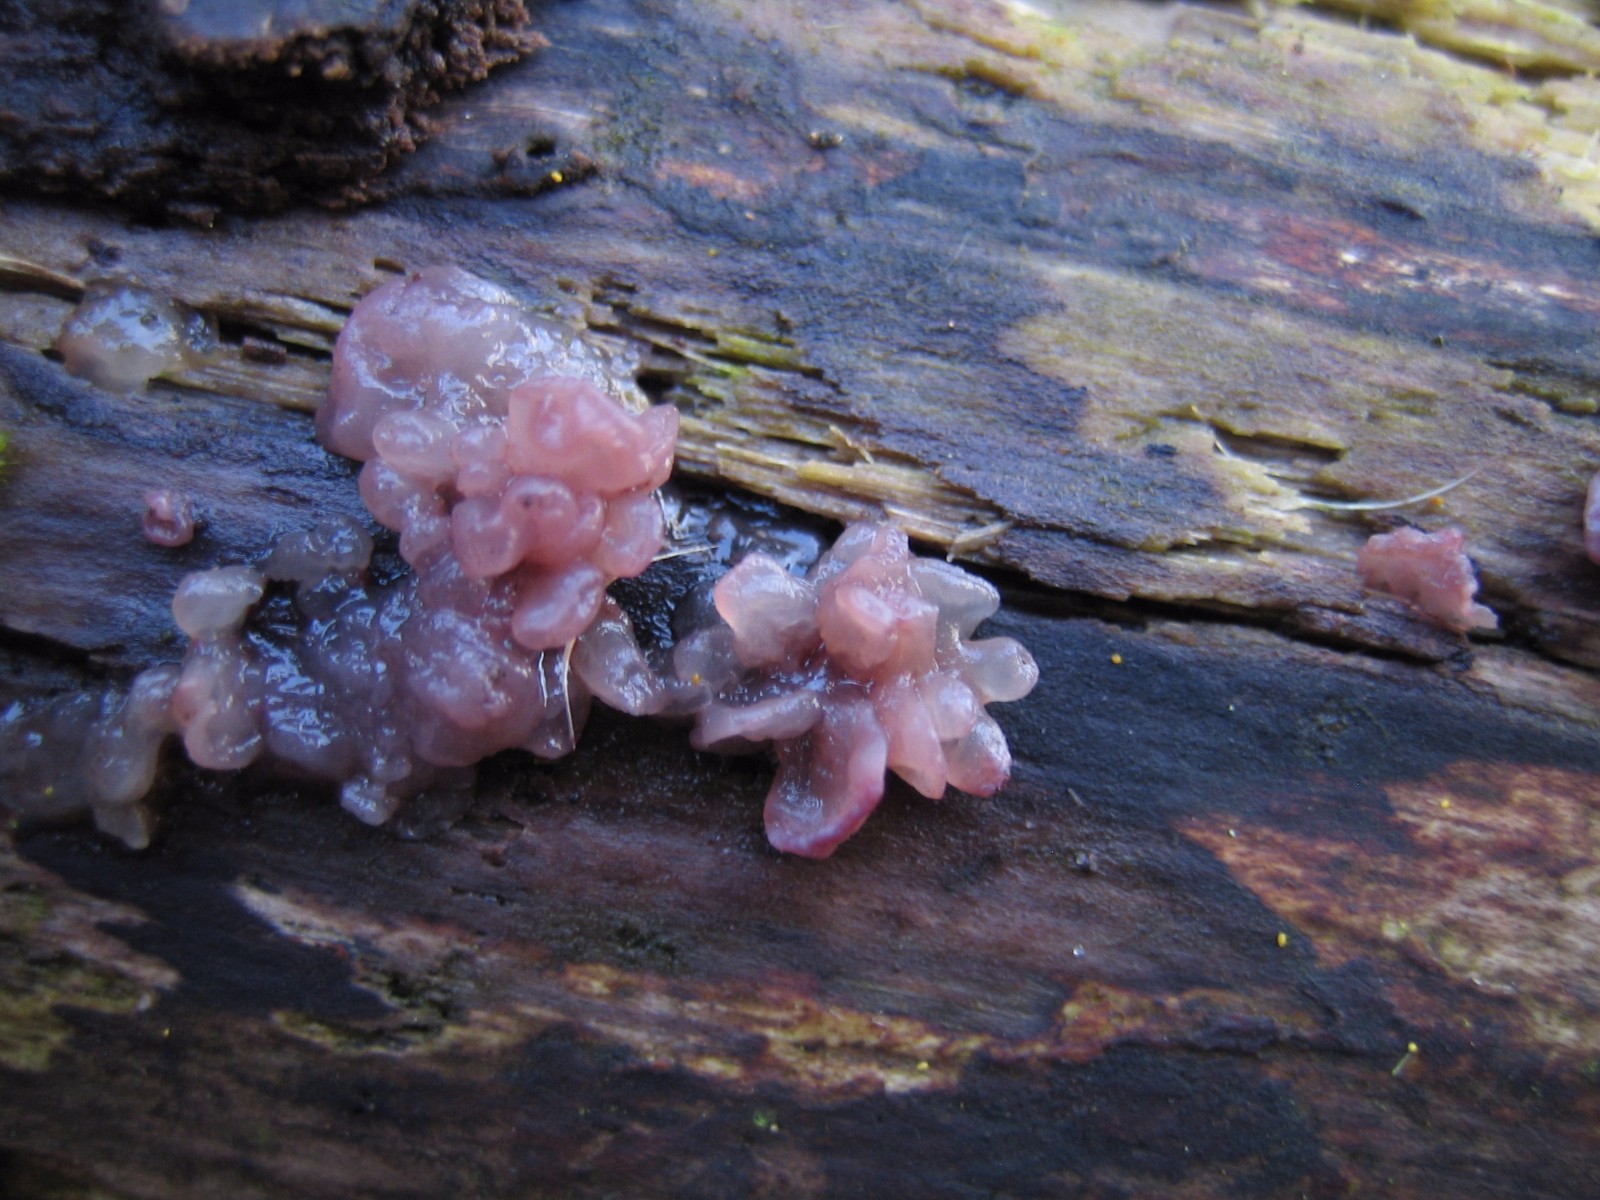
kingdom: Fungi
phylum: Ascomycota
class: Leotiomycetes
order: Helotiales
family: Gelatinodiscaceae
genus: Ascocoryne
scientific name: Ascocoryne sarcoides
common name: rødlilla sejskive
